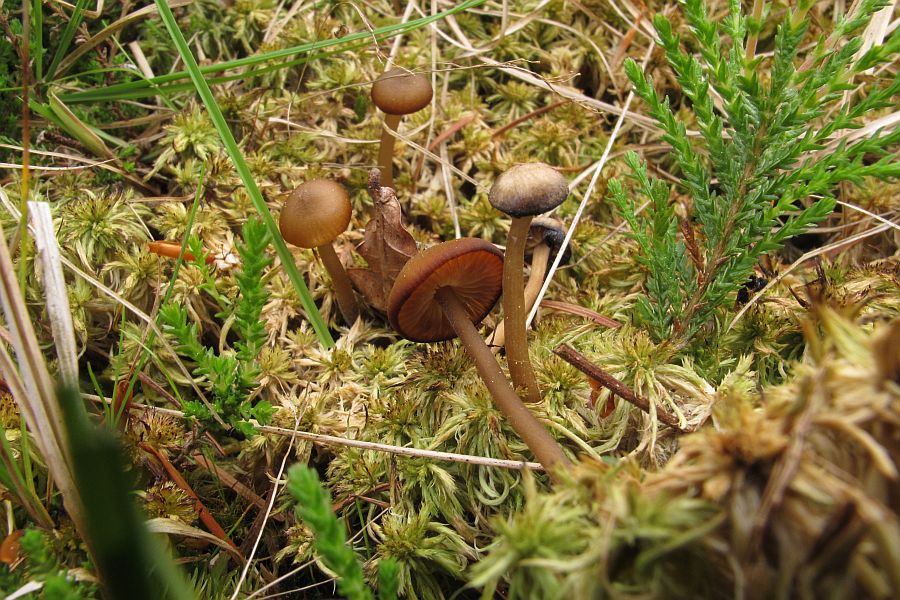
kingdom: Fungi
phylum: Basidiomycota
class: Agaricomycetes
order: Agaricales
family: Lyophyllaceae
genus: Sphagnurus
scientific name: Sphagnurus paluster
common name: tørvemos-gråblad
